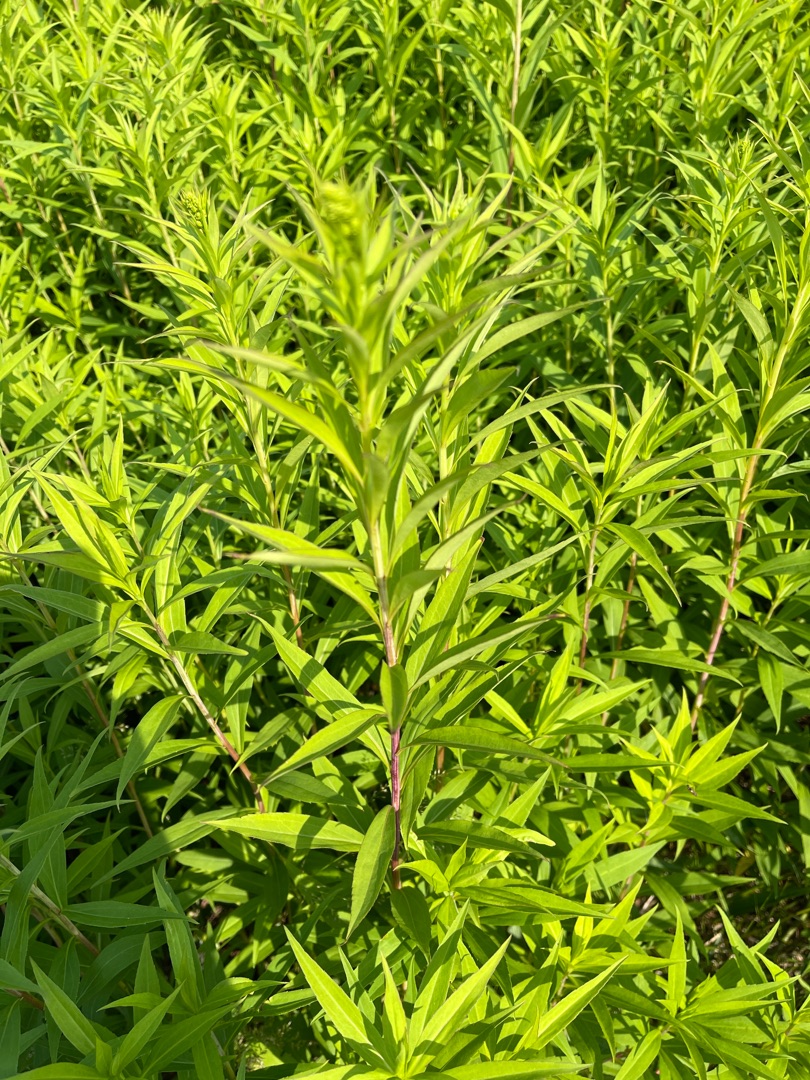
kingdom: Plantae
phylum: Tracheophyta
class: Magnoliopsida
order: Asterales
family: Asteraceae
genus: Solidago
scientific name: Solidago gigantea
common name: Sildig gyldenris
